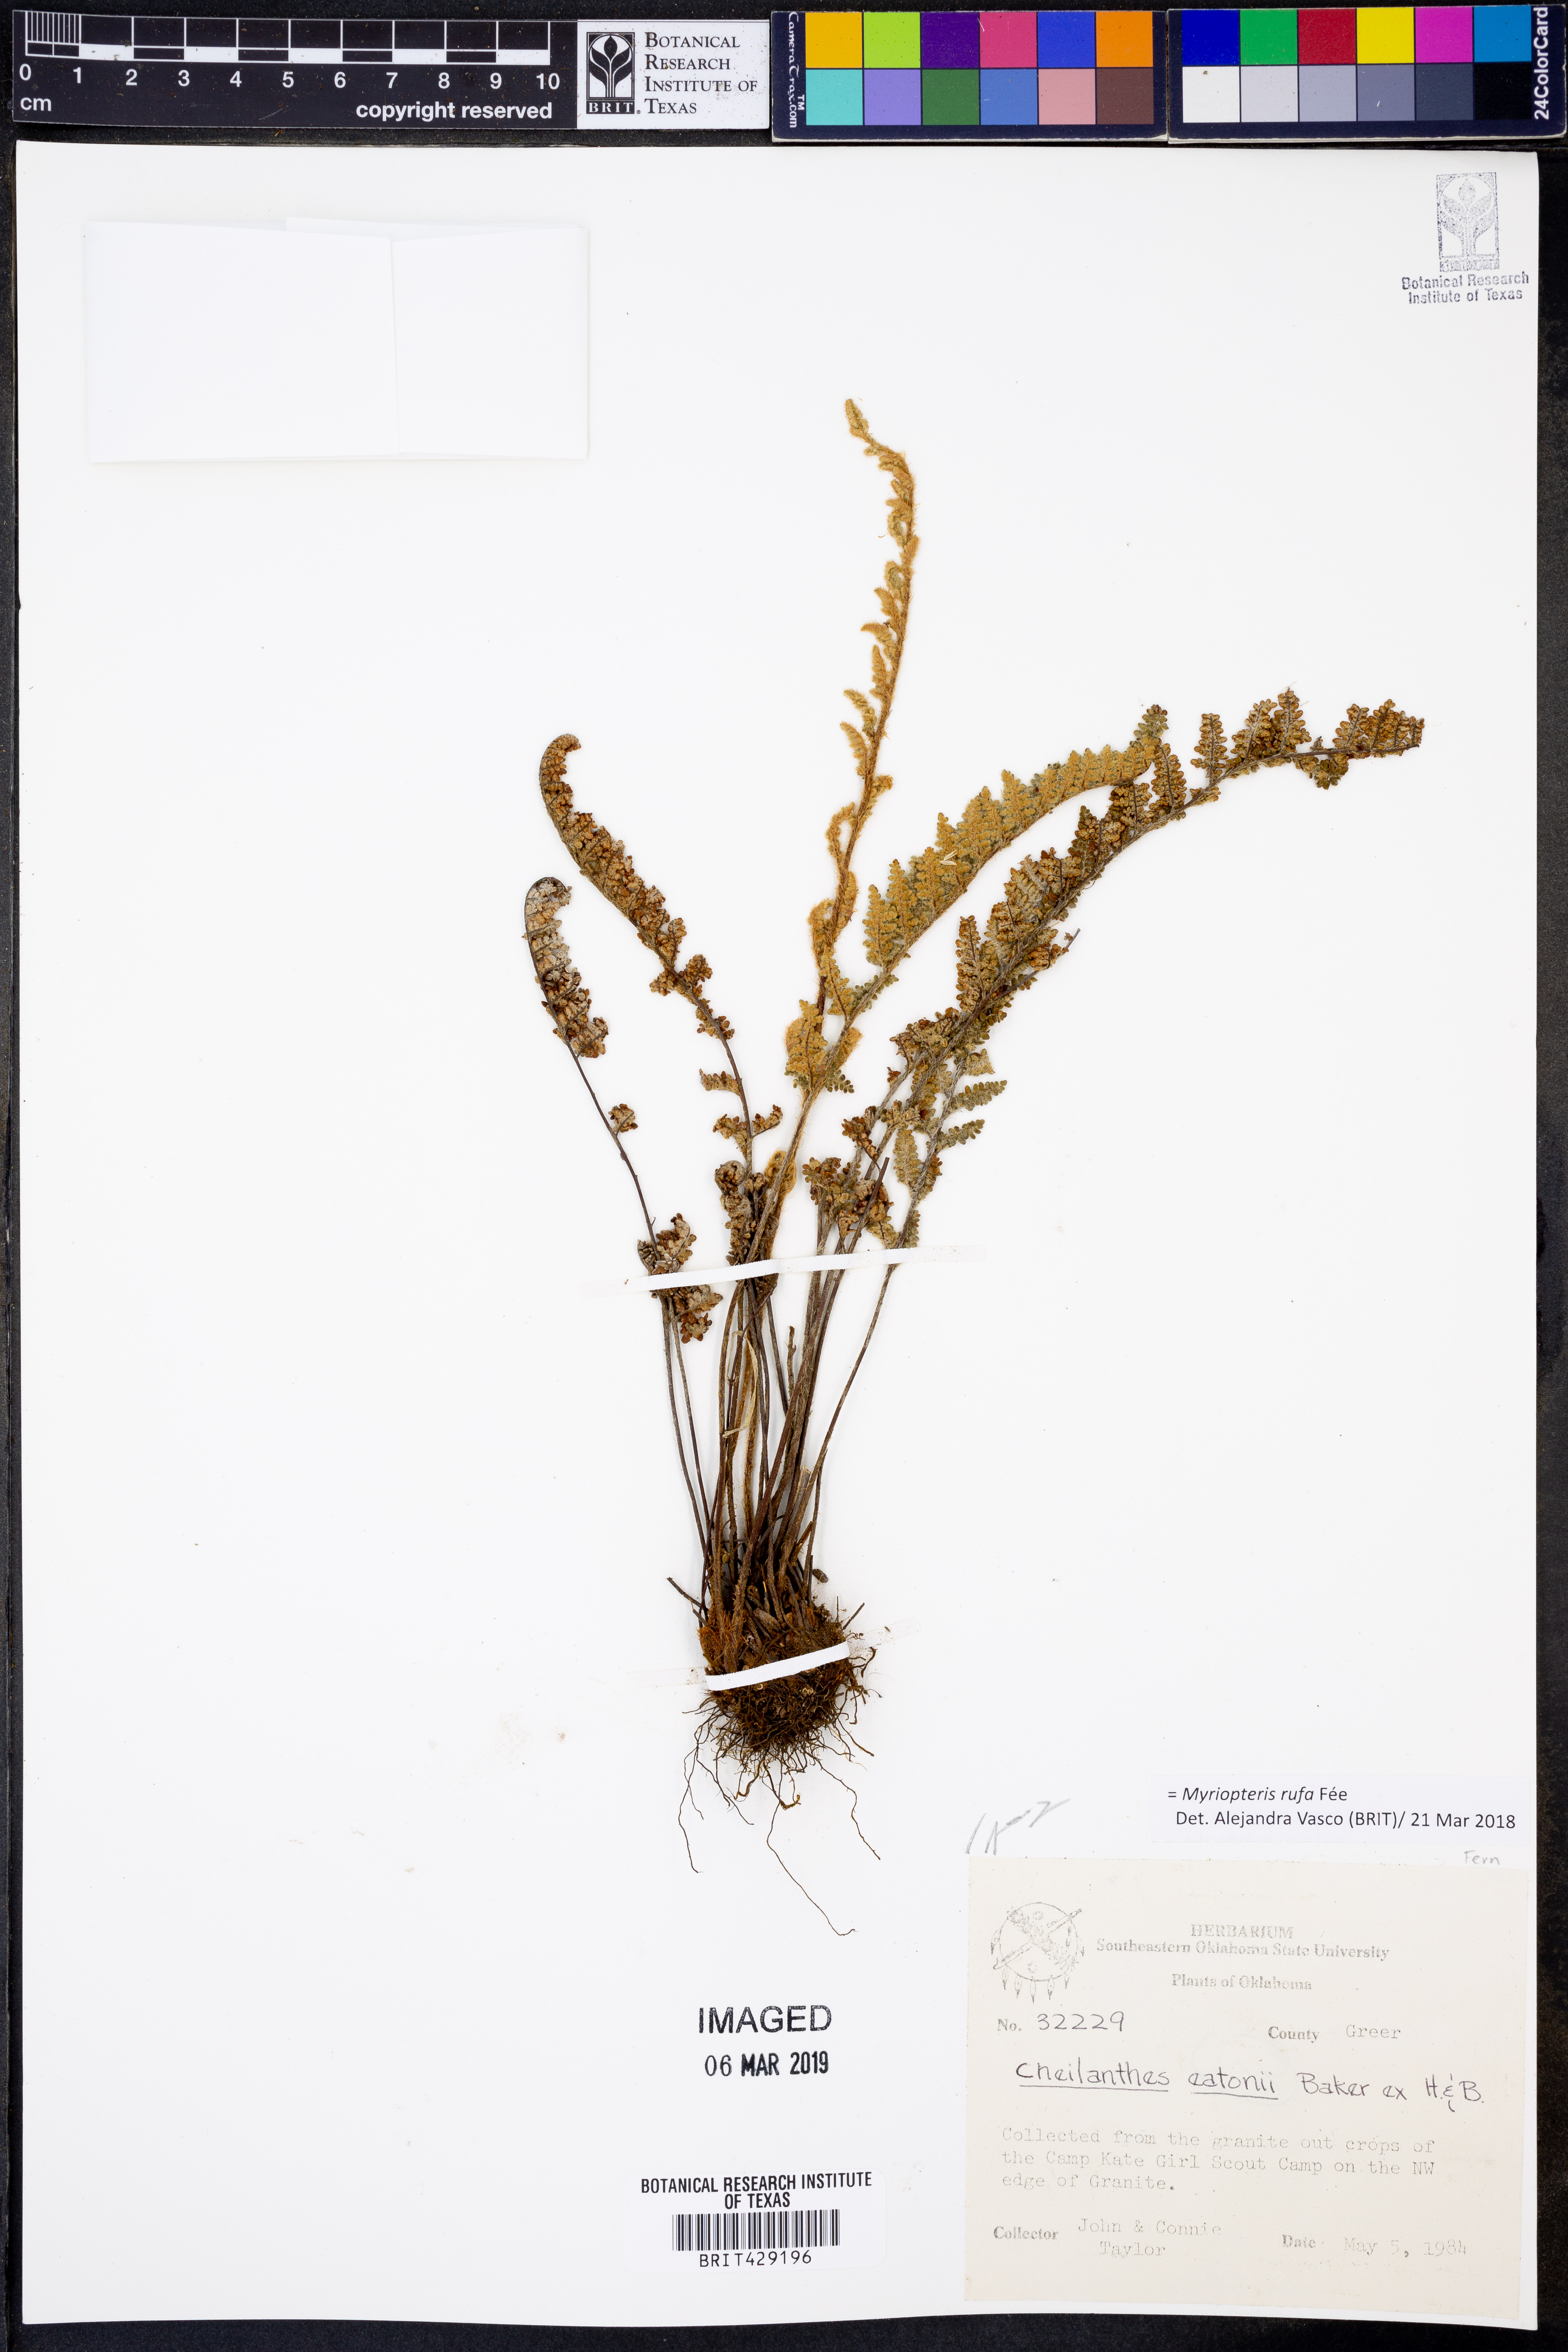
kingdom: Plantae
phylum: Tracheophyta
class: Polypodiopsida
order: Polypodiales
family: Pteridaceae
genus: Myriopteris
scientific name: Myriopteris rufa
